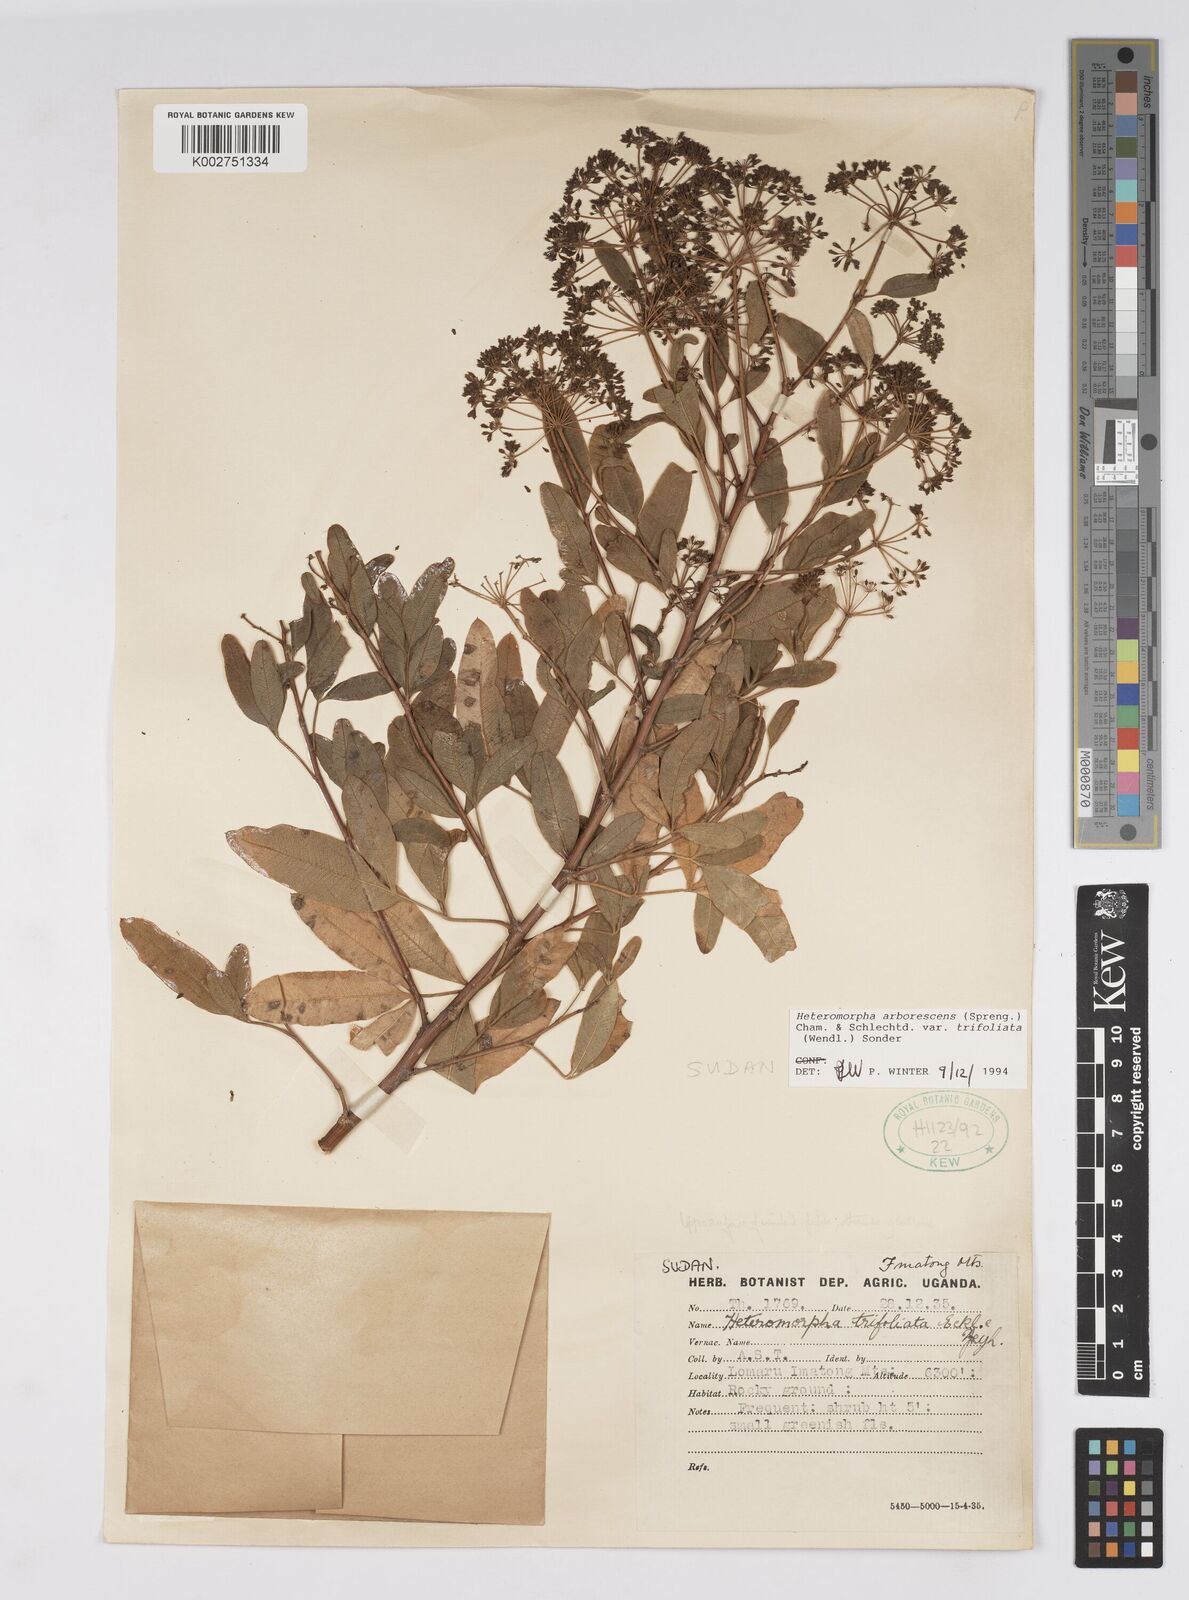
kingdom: Plantae
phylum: Tracheophyta
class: Magnoliopsida
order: Apiales
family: Apiaceae
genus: Heteromorpha
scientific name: Heteromorpha arborescens
